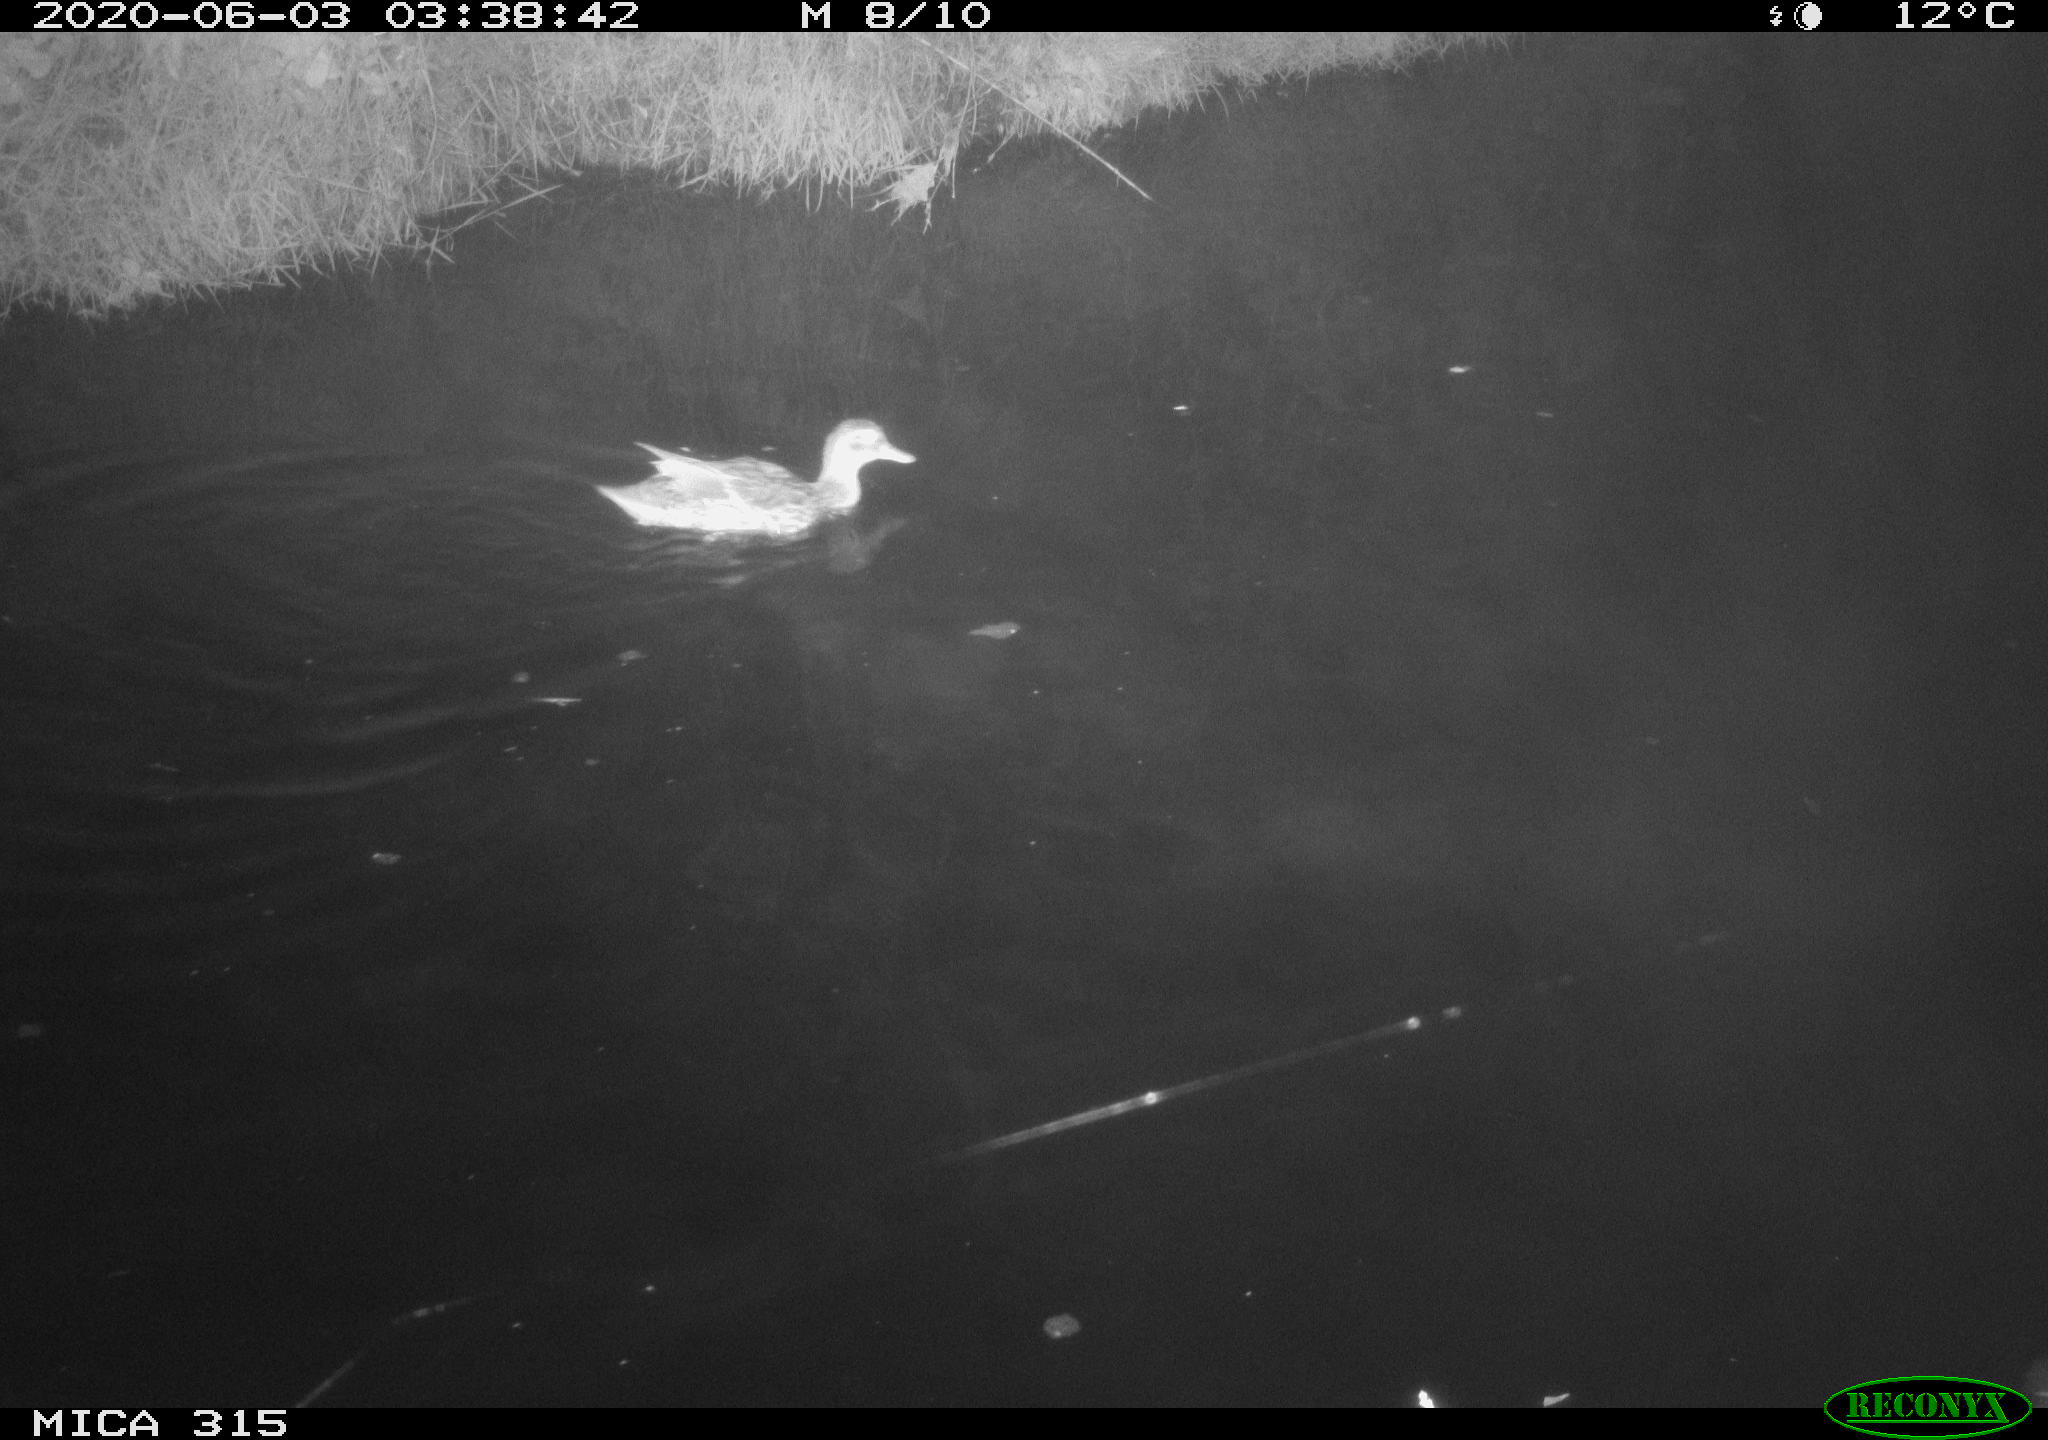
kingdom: Animalia
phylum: Chordata
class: Aves
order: Anseriformes
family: Anatidae
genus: Anas
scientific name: Anas platyrhynchos
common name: Mallard
